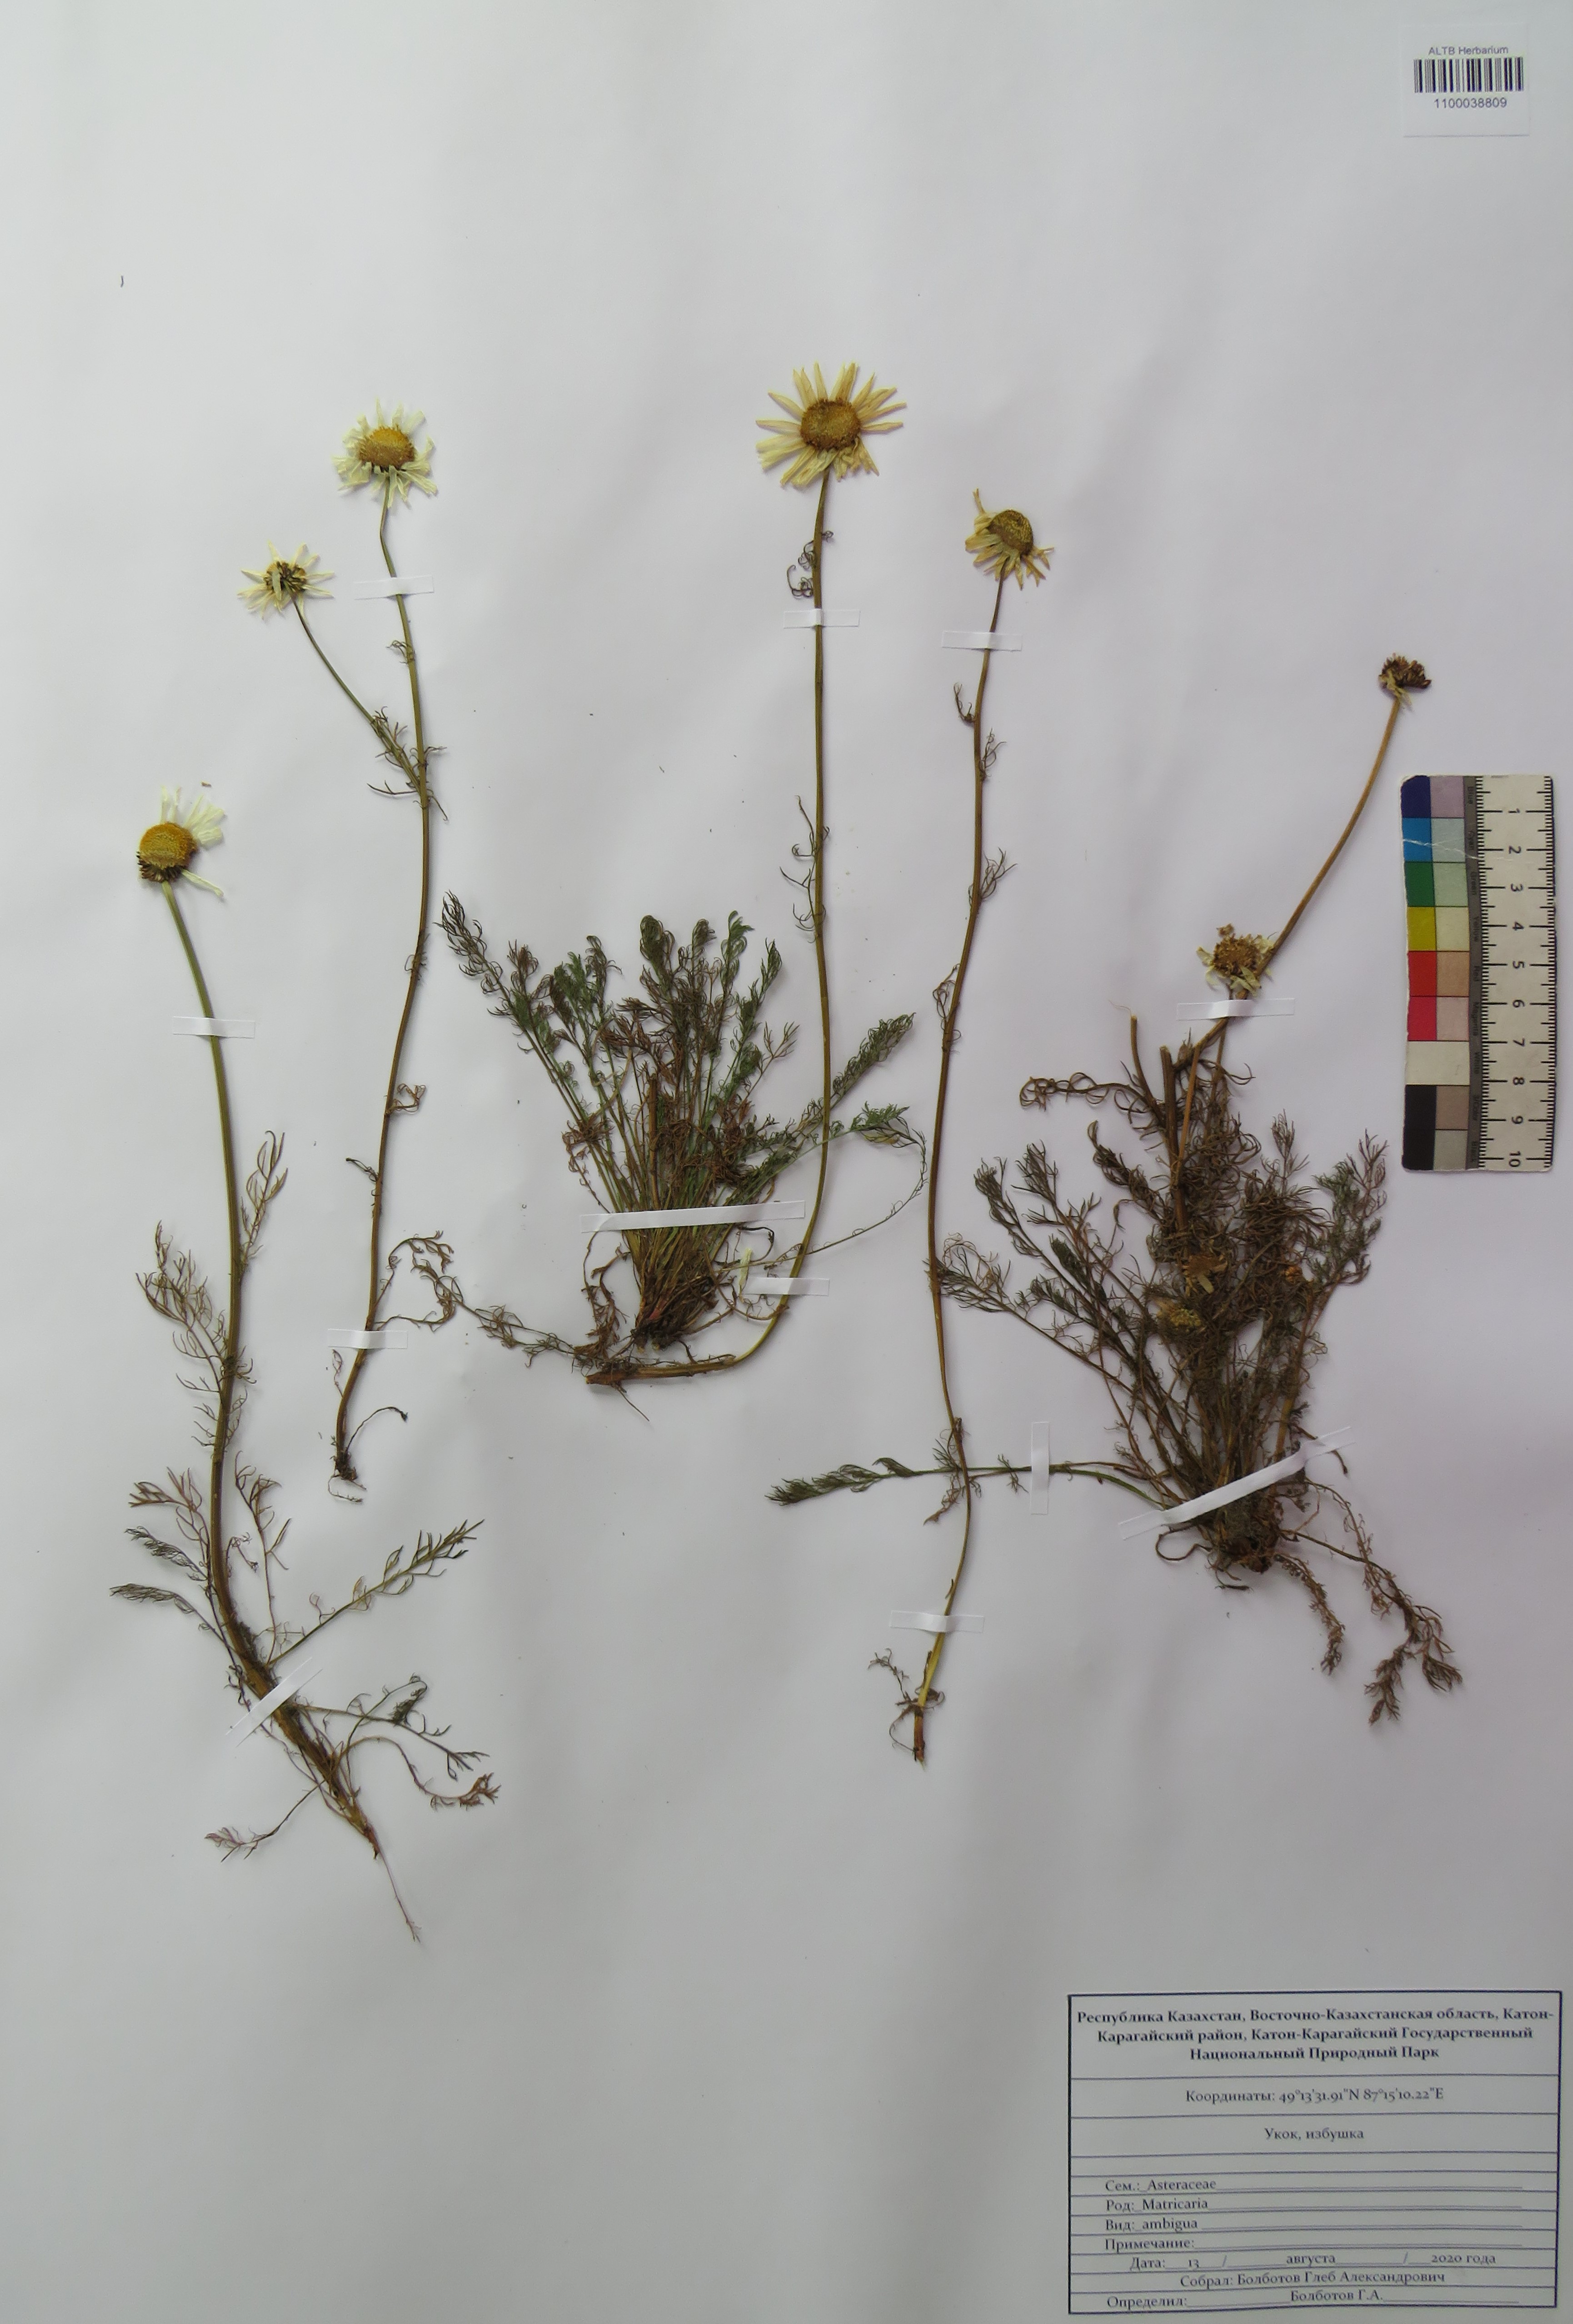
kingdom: Plantae
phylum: Tracheophyta
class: Magnoliopsida
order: Asterales
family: Asteraceae
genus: Tripleurospermum
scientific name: Tripleurospermum ambiguum
